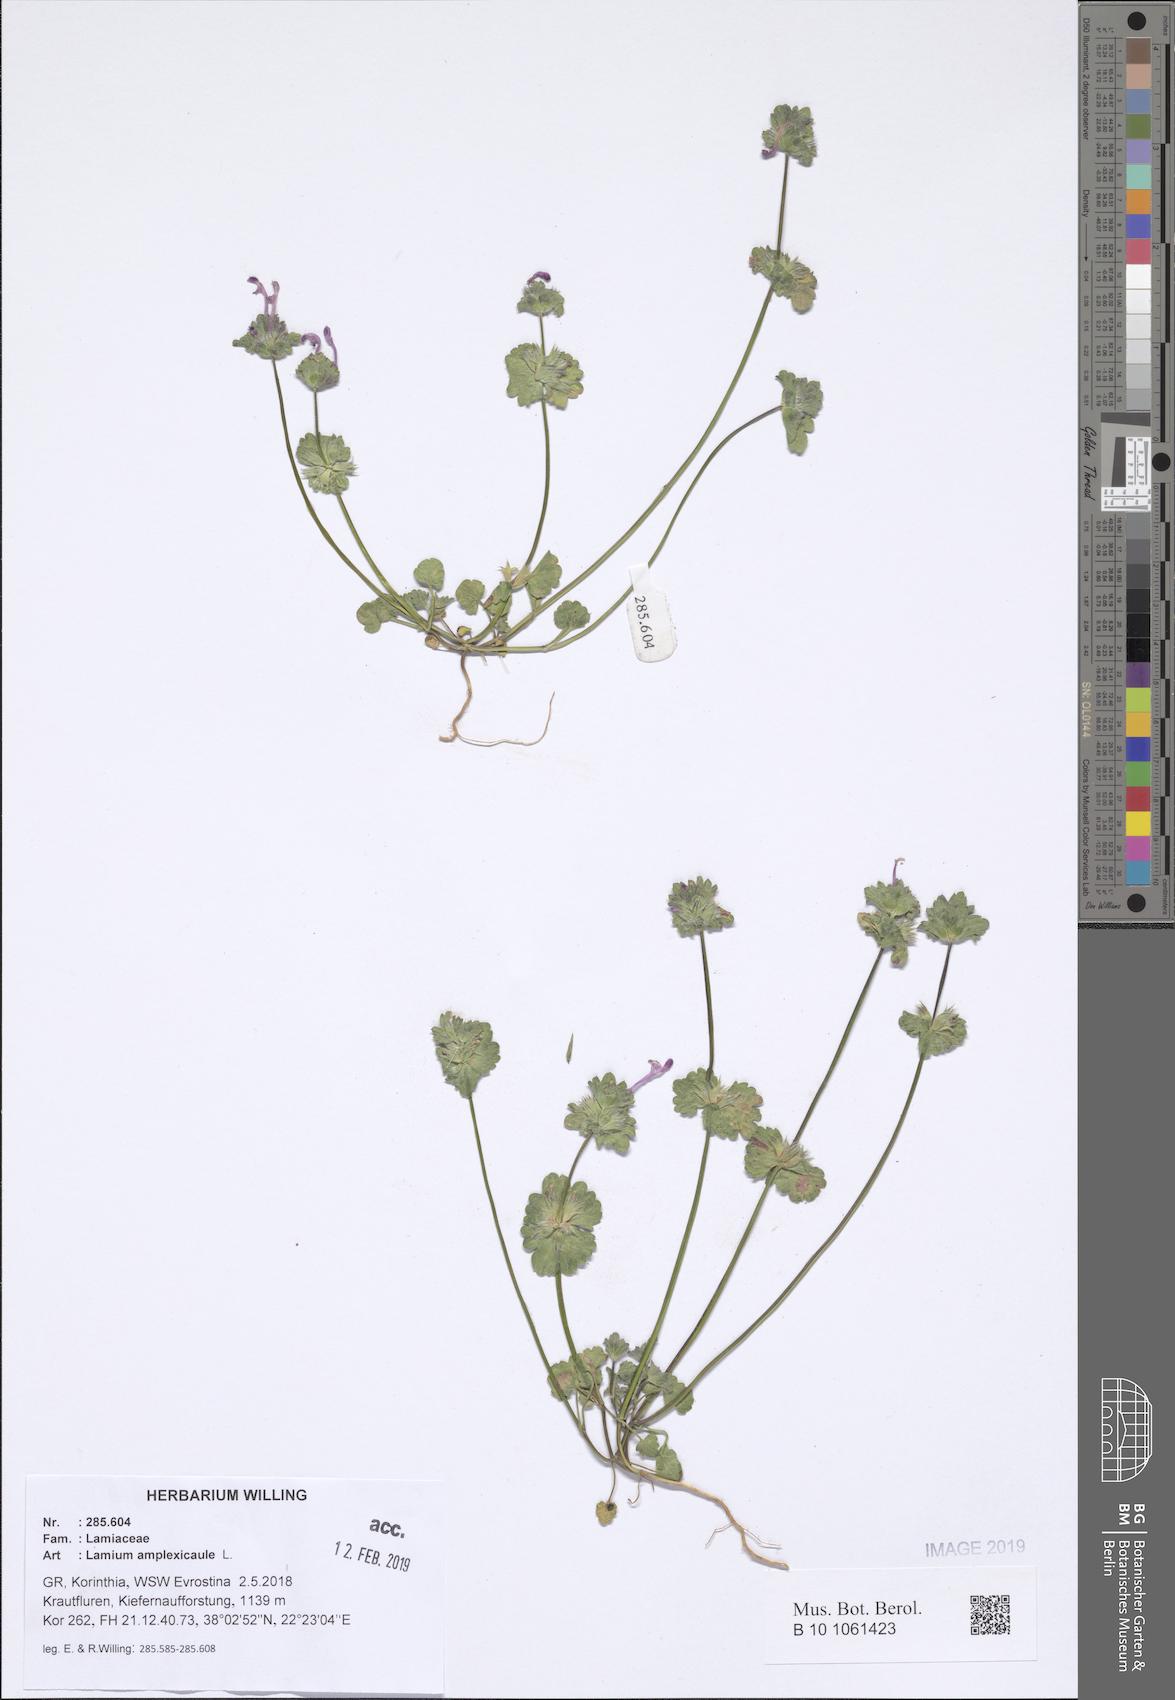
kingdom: Plantae
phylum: Tracheophyta
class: Magnoliopsida
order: Lamiales
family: Lamiaceae
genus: Lamium
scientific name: Lamium amplexicaule
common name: Henbit dead-nettle
